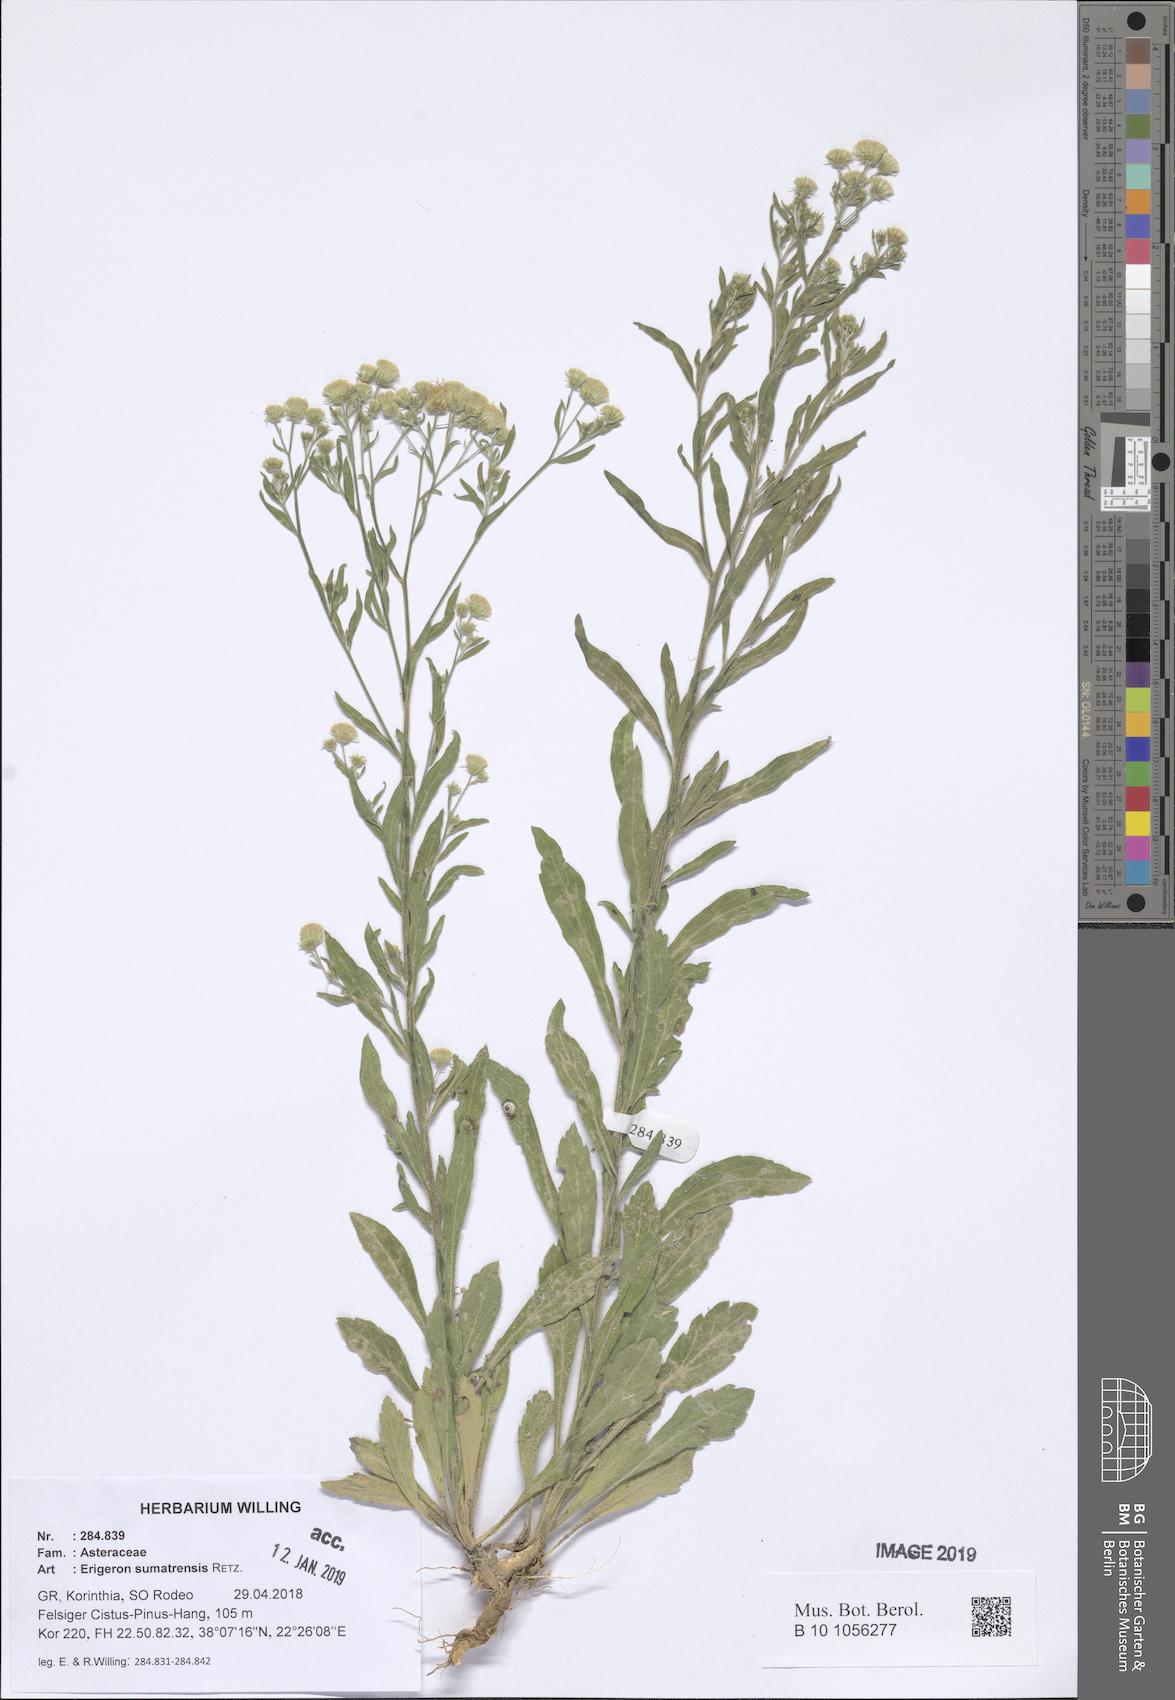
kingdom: Plantae
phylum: Tracheophyta
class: Magnoliopsida
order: Asterales
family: Asteraceae
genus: Erigeron
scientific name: Erigeron sumatrensis
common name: Daisy
